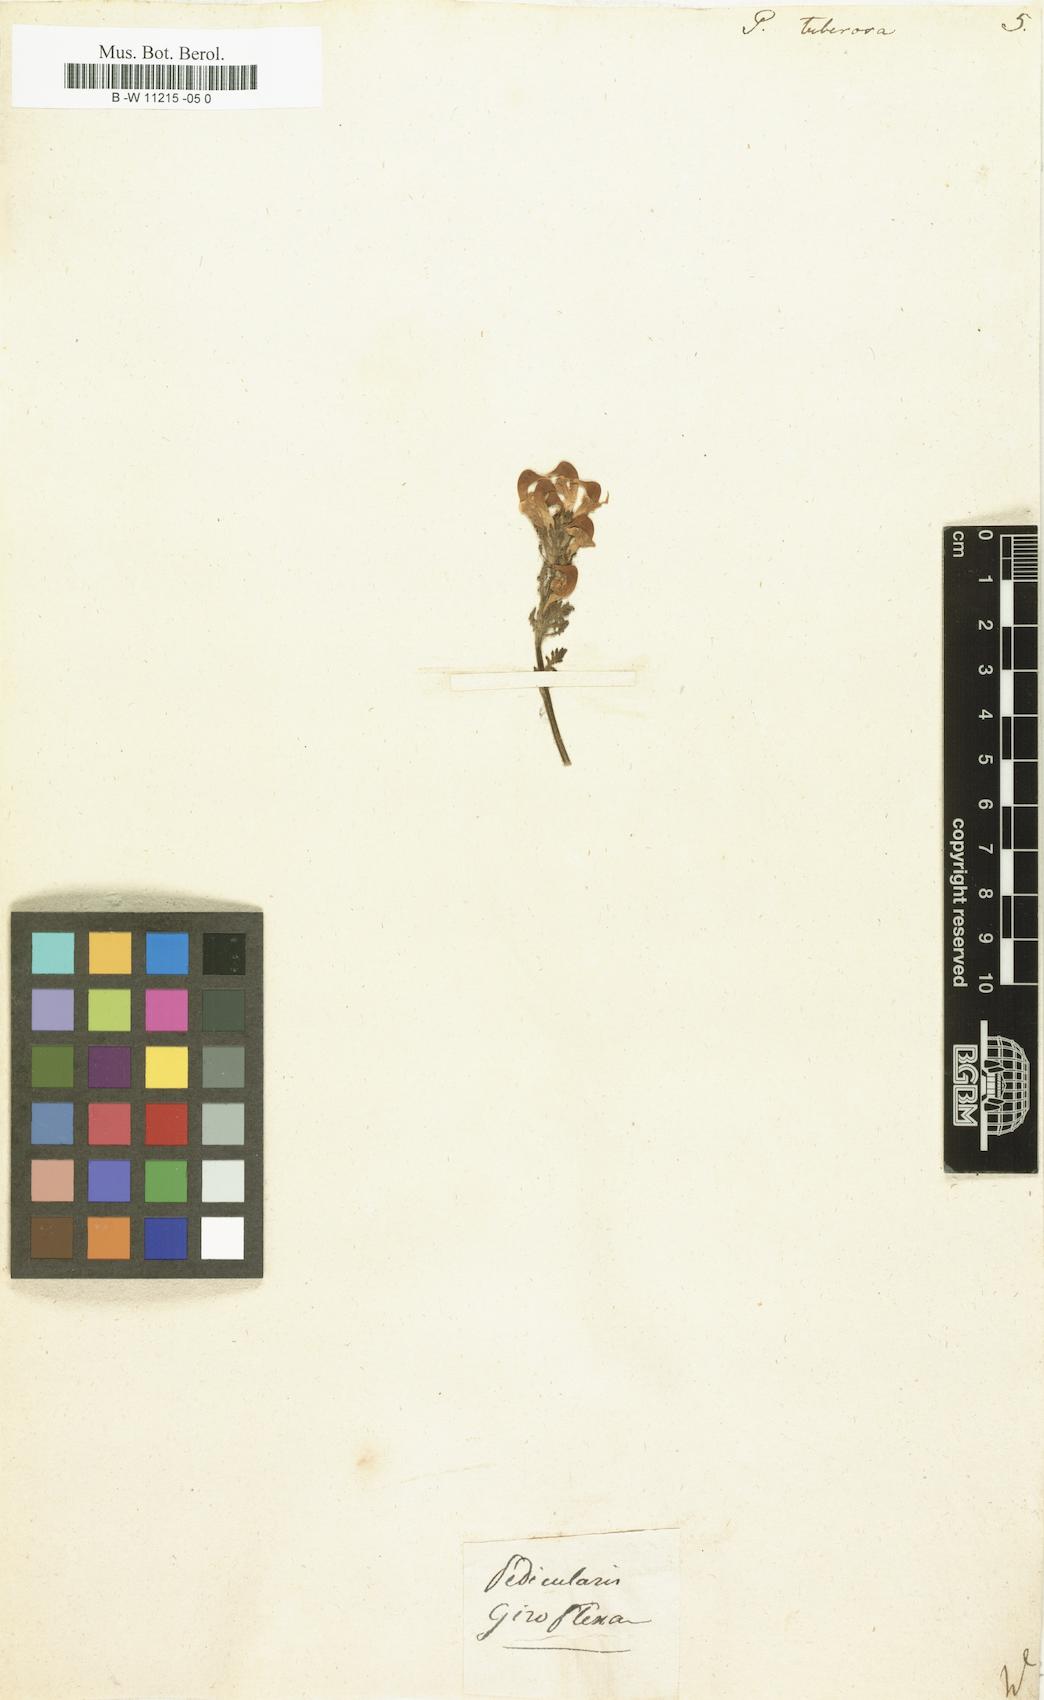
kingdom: Plantae
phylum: Tracheophyta
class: Magnoliopsida
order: Lamiales
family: Orobanchaceae
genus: Pedicularis
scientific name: Pedicularis tuberosa
